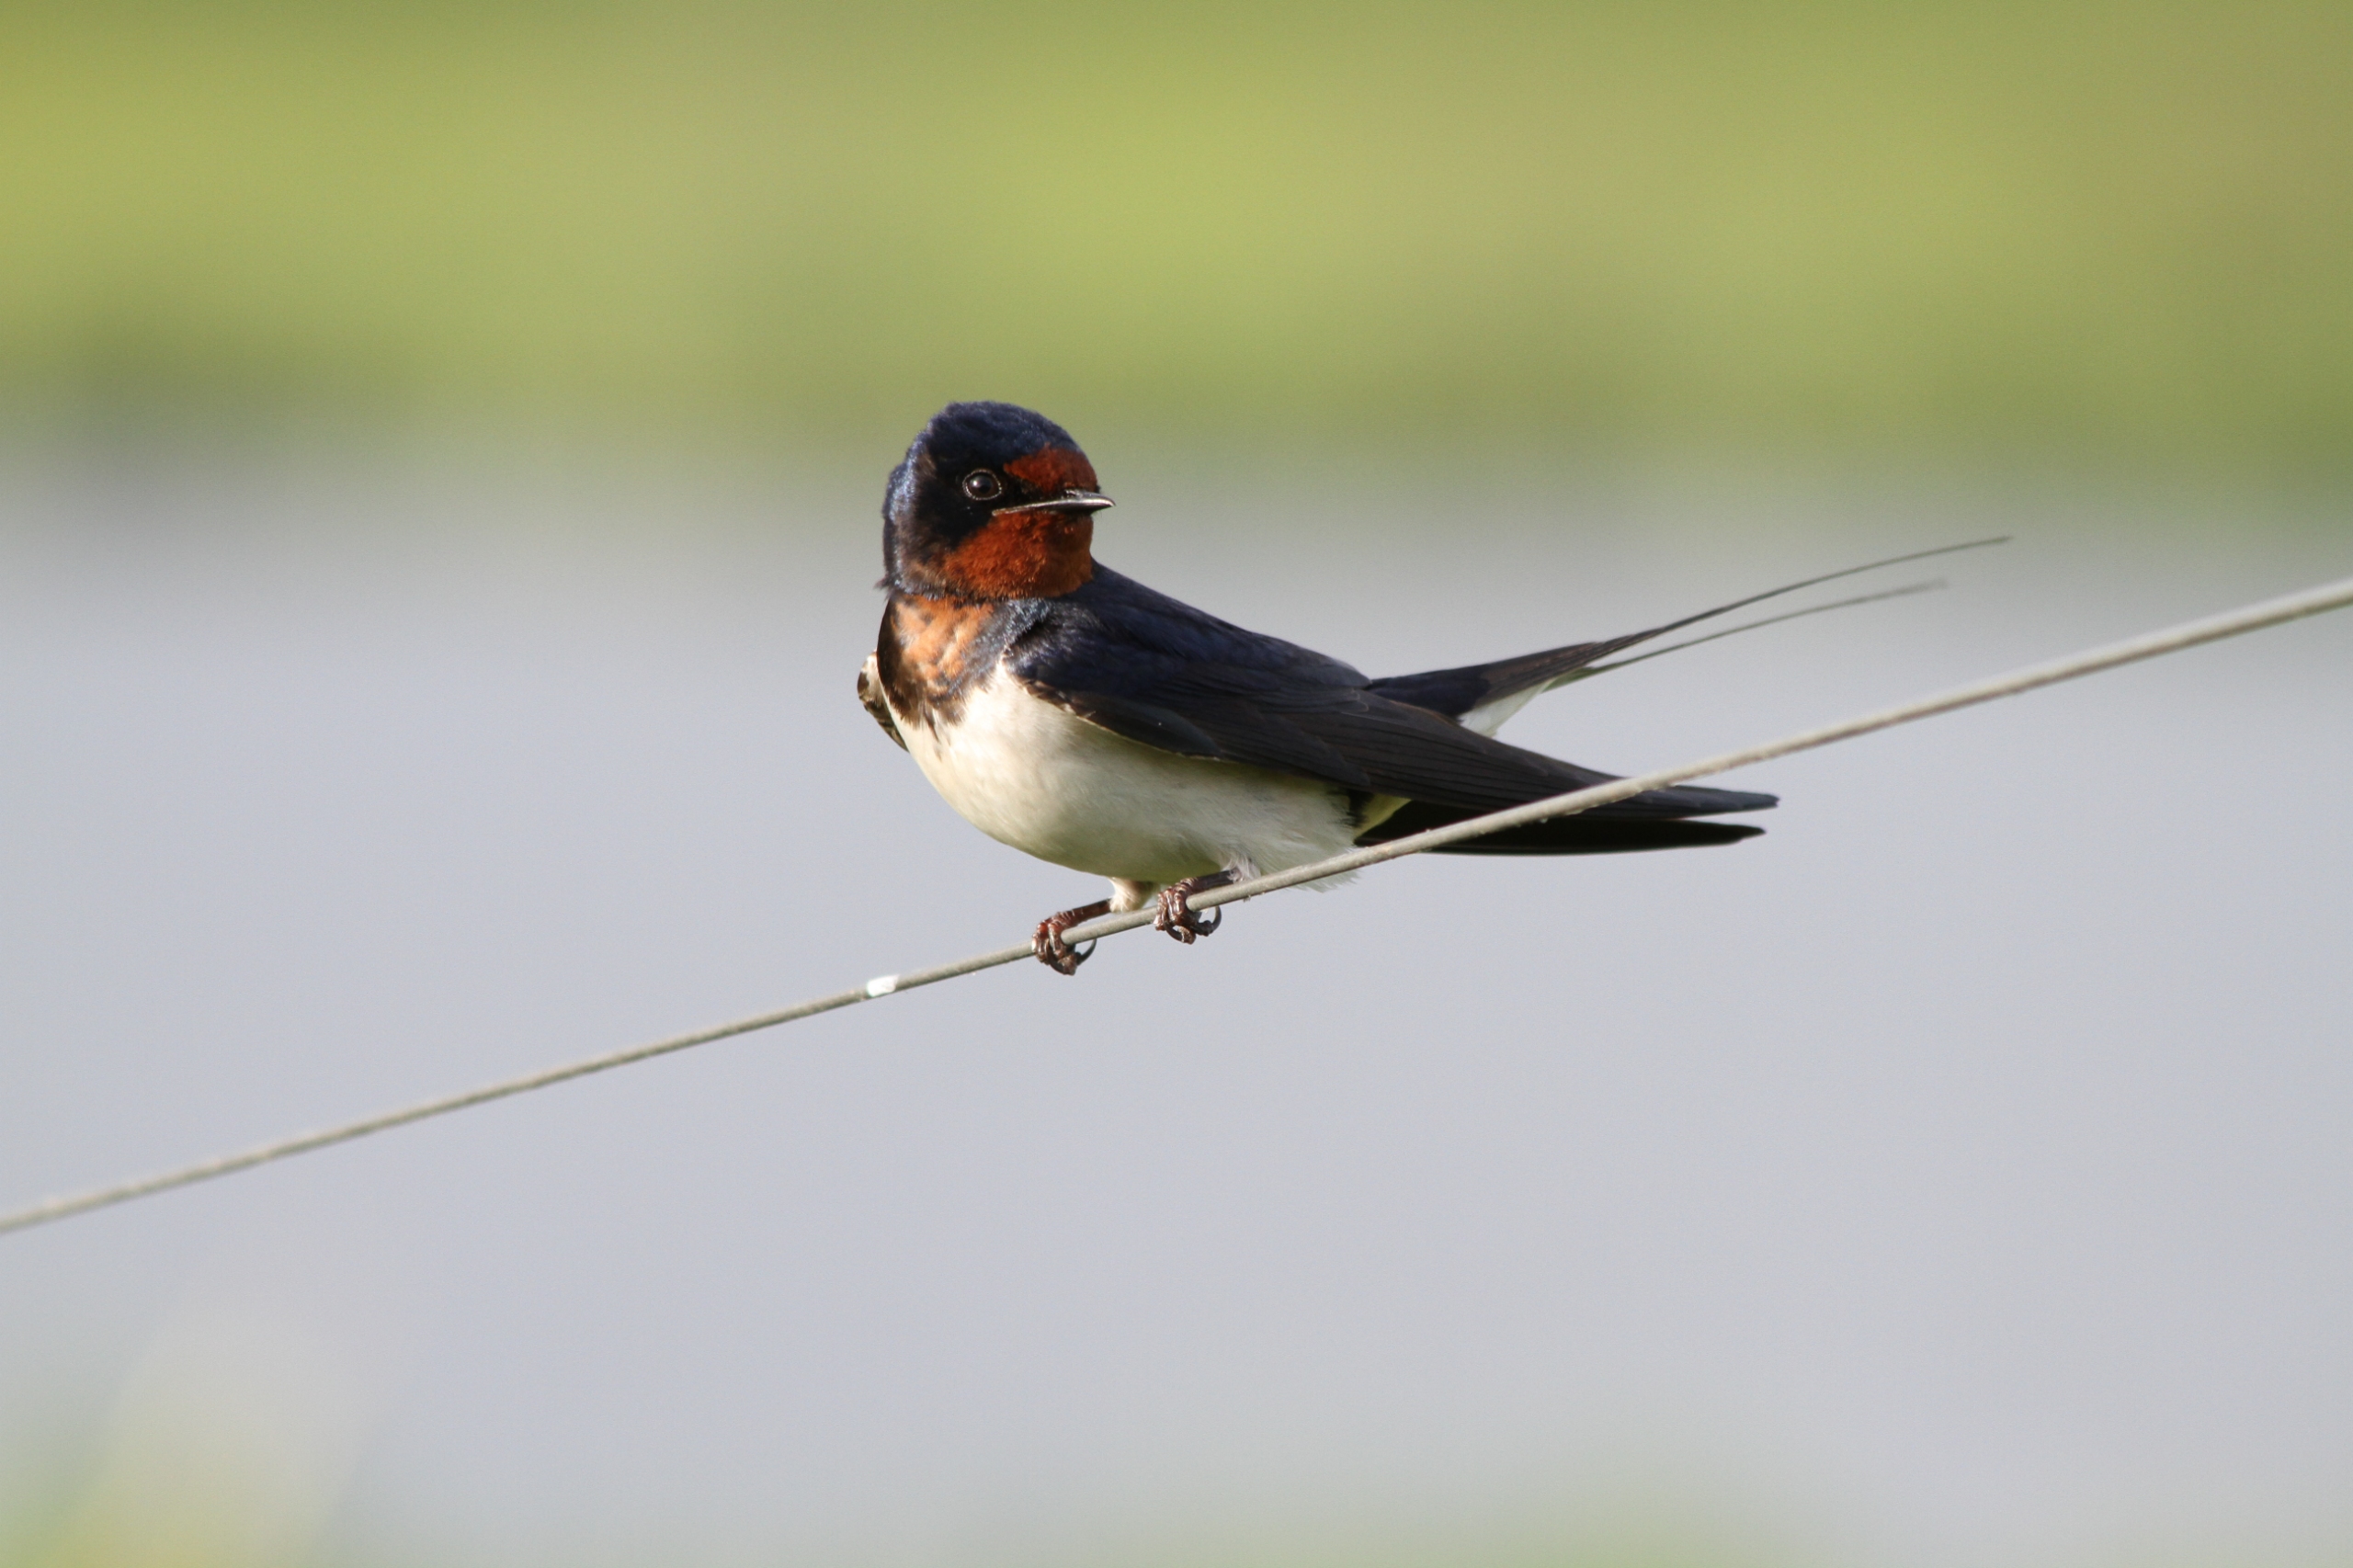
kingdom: Animalia
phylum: Chordata
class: Aves
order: Passeriformes
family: Hirundinidae
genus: Hirundo
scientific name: Hirundo rustica
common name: Landsvale
